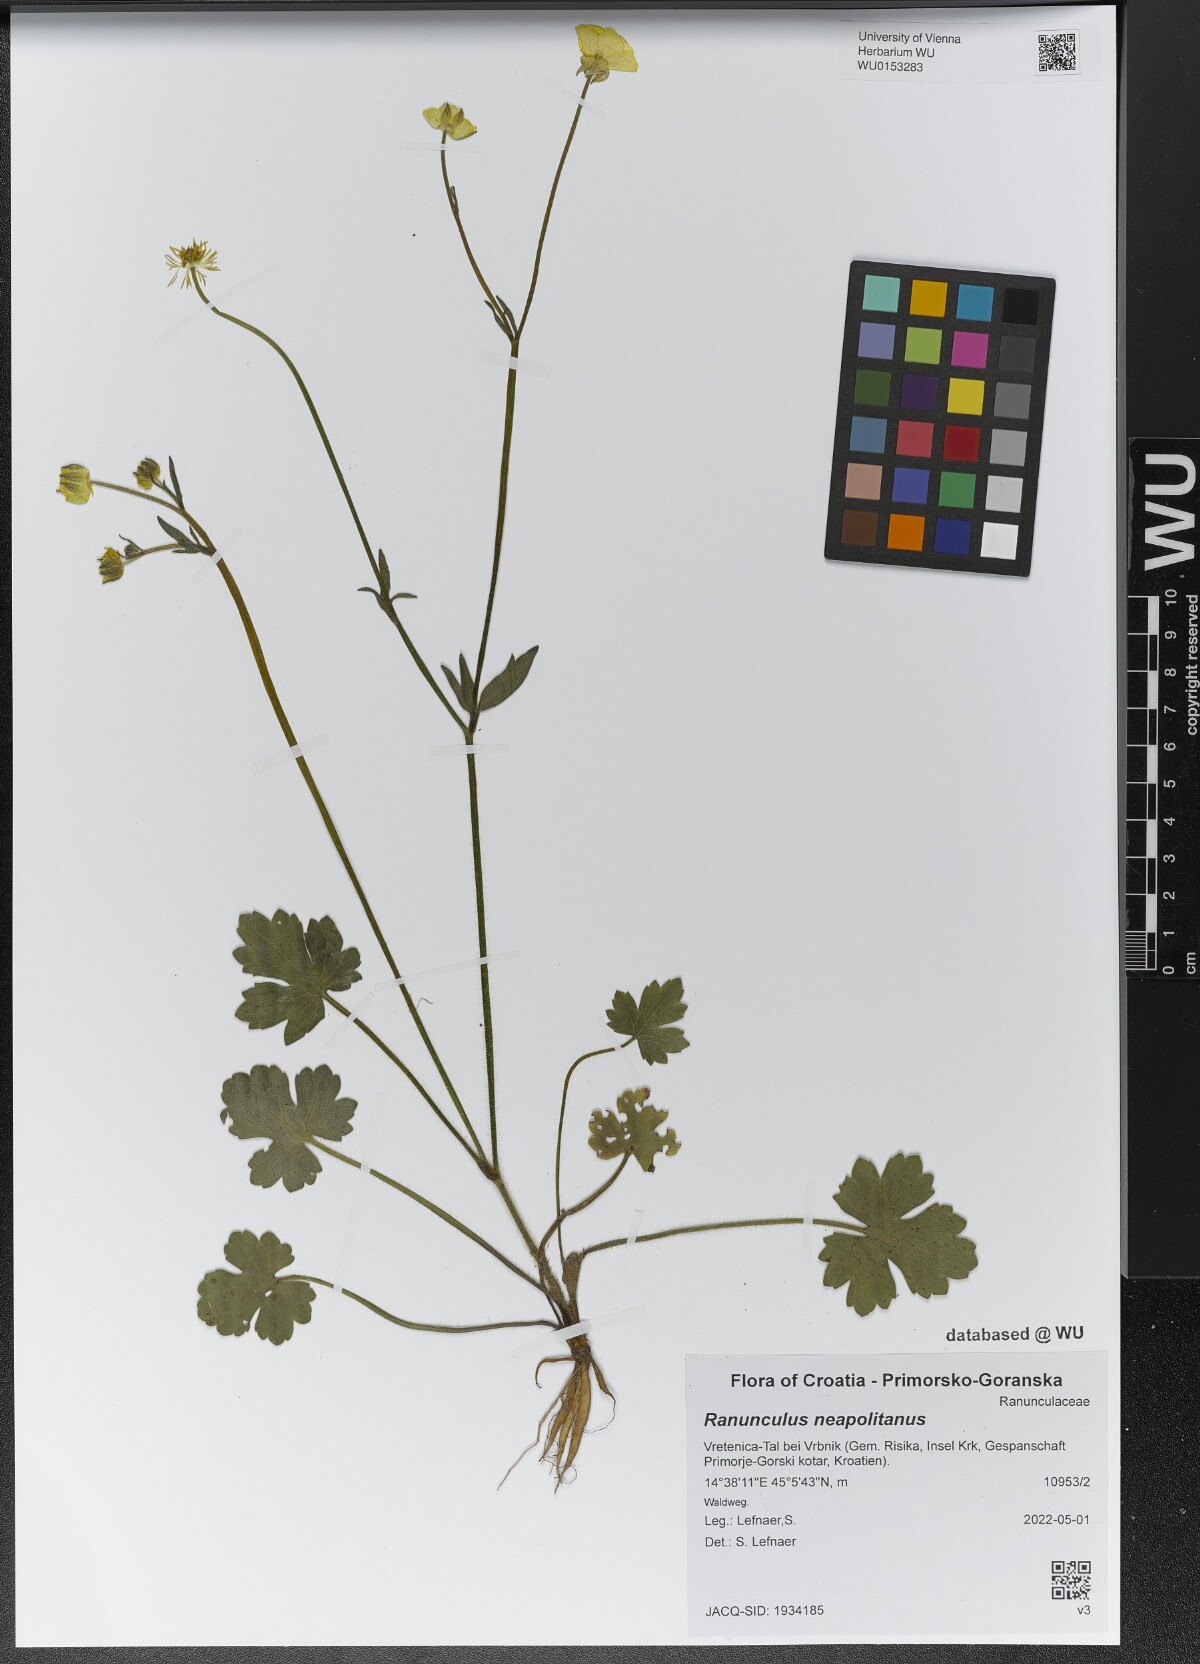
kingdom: Plantae
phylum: Tracheophyta
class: Magnoliopsida
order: Ranunculales
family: Ranunculaceae
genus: Ranunculus
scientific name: Ranunculus neapolitanus
